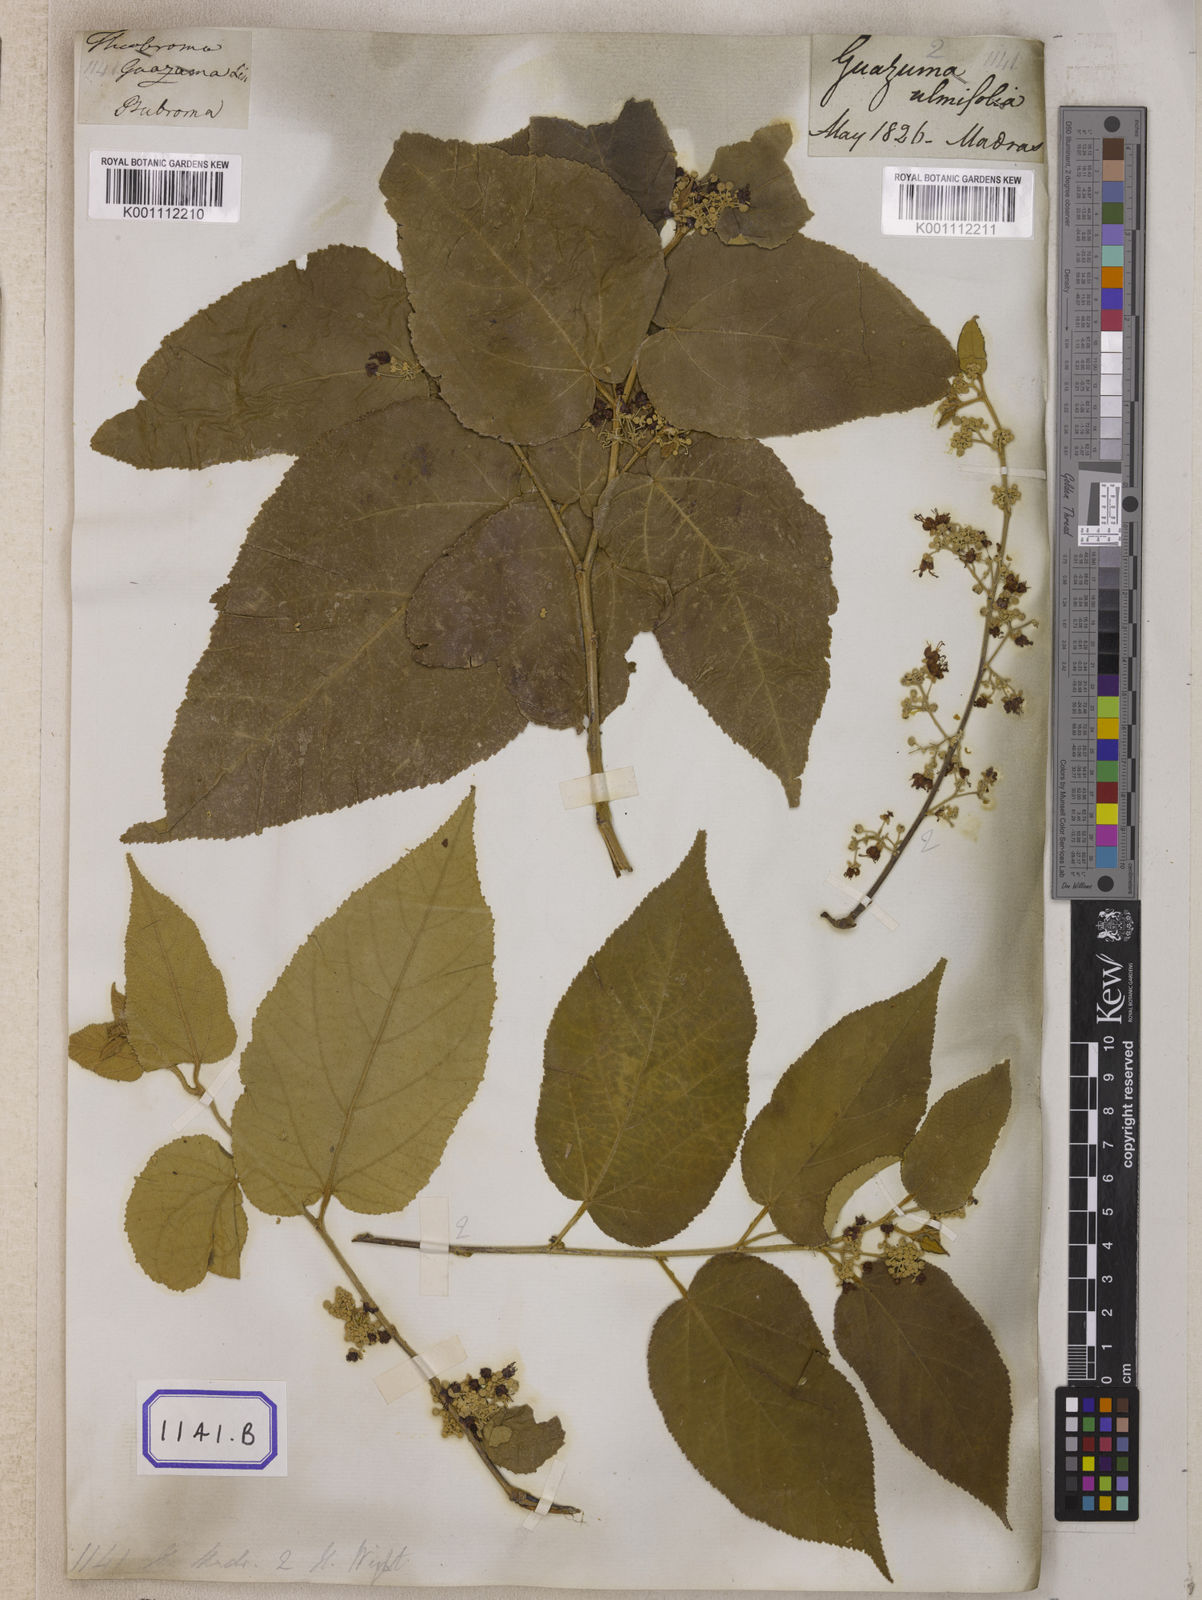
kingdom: Plantae
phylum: Tracheophyta
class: Magnoliopsida
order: Malvales
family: Malvaceae
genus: Guazuma
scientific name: Guazuma ulmifolia
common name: Bastard-cedar
